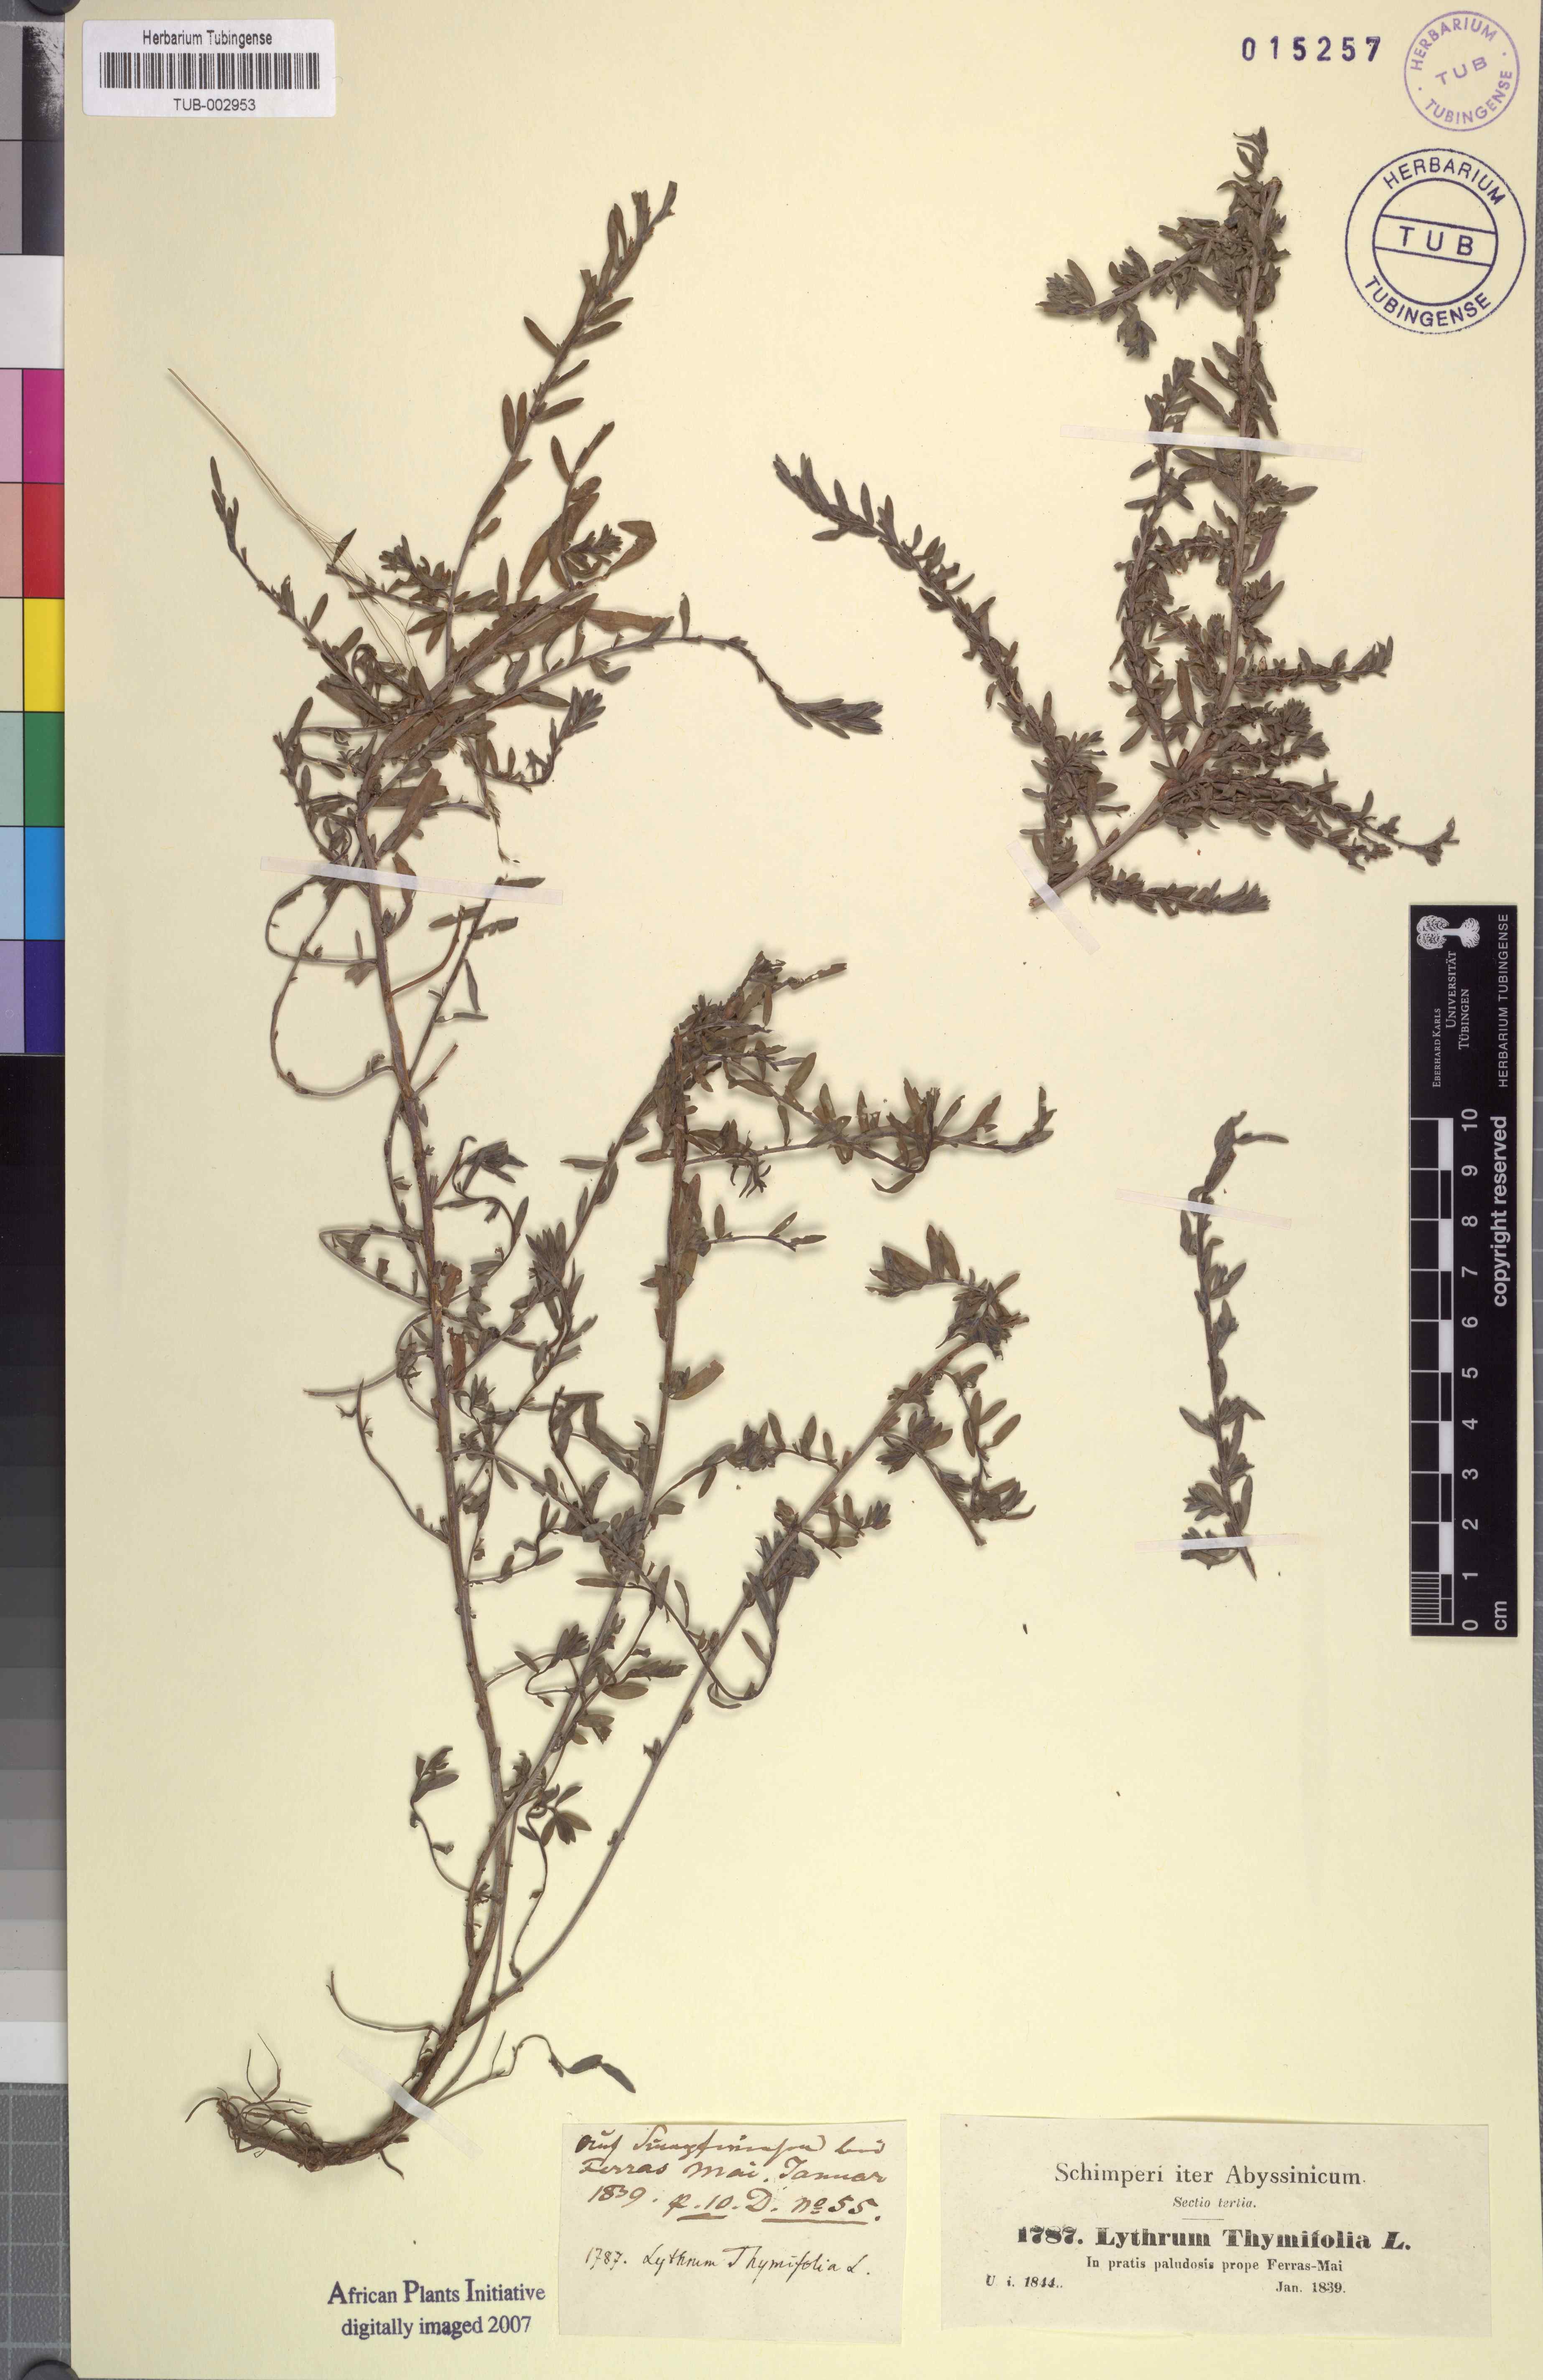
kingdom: Plantae
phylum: Tracheophyta
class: Magnoliopsida
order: Myrtales
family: Lythraceae
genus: Lythrum
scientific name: Lythrum thymifolia
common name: Thymeleaf loosestrife
